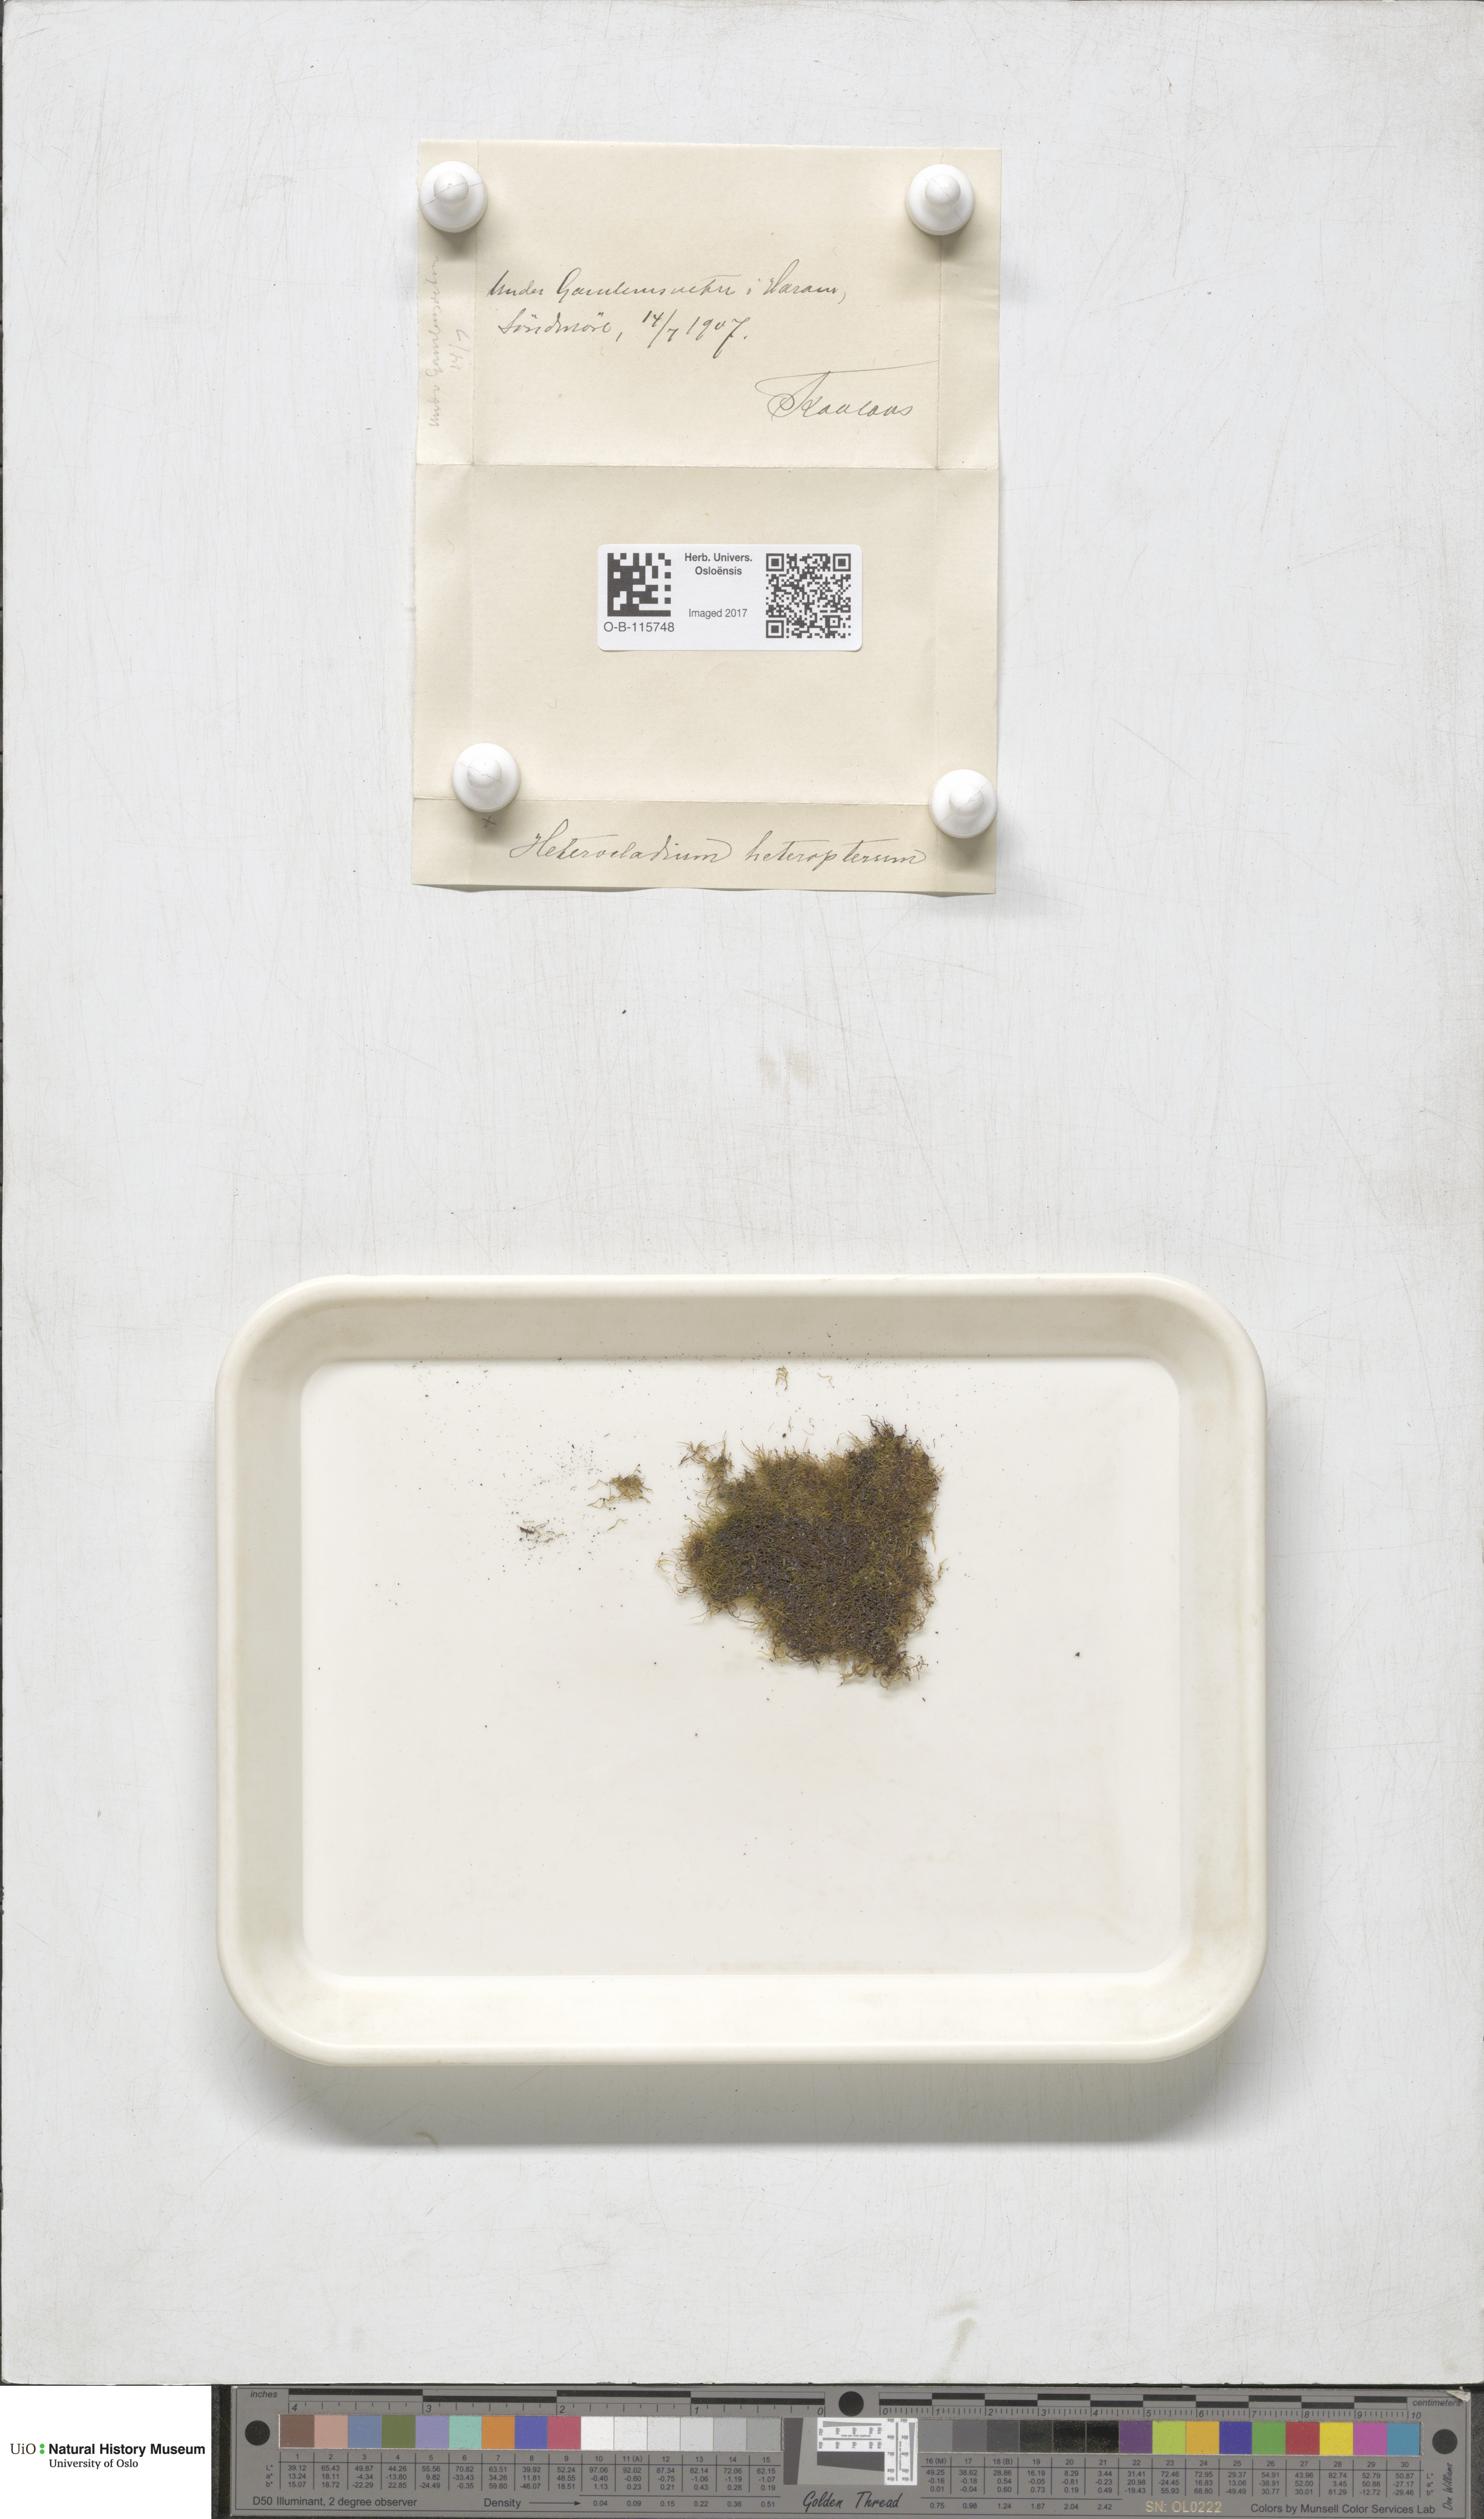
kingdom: Plantae
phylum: Bryophyta
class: Bryopsida
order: Hypnales
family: Lembophyllaceae
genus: Heterocladium
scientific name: Heterocladium heteropterum
